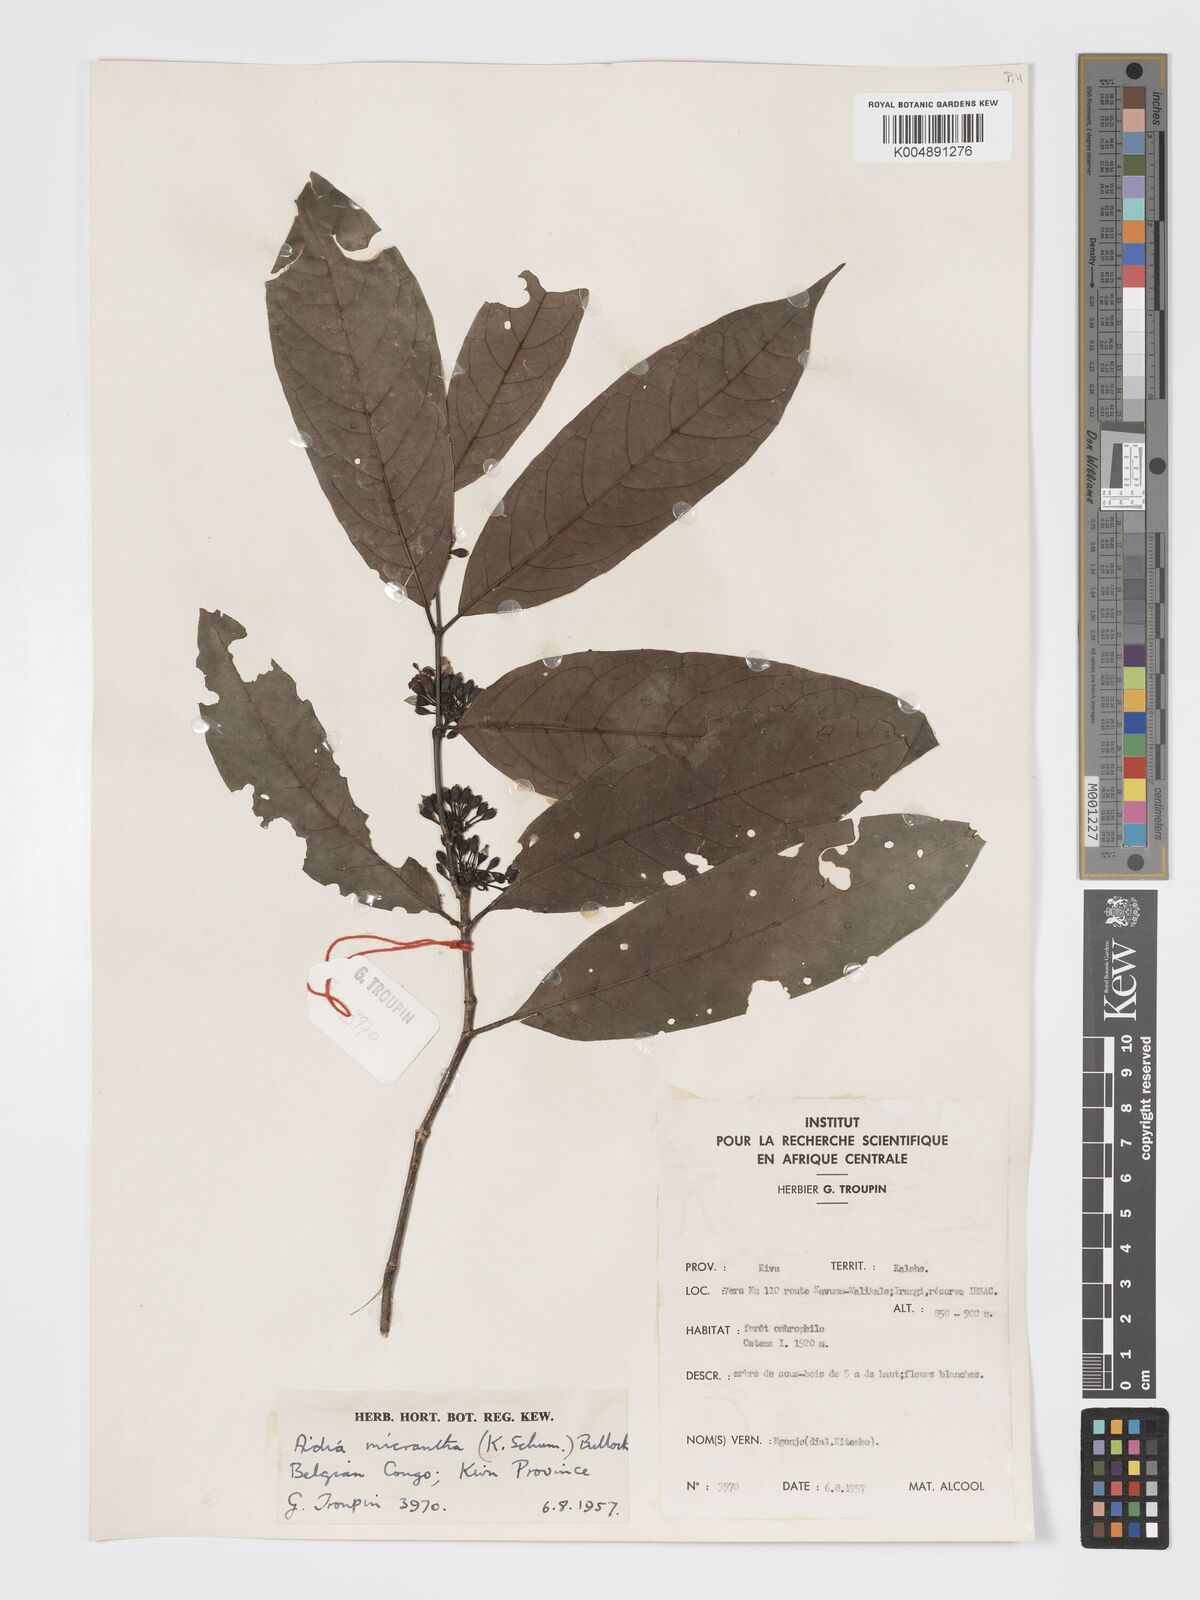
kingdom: Plantae
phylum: Tracheophyta
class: Magnoliopsida
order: Gentianales
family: Rubiaceae
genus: Aidia
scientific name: Aidia micrantha
